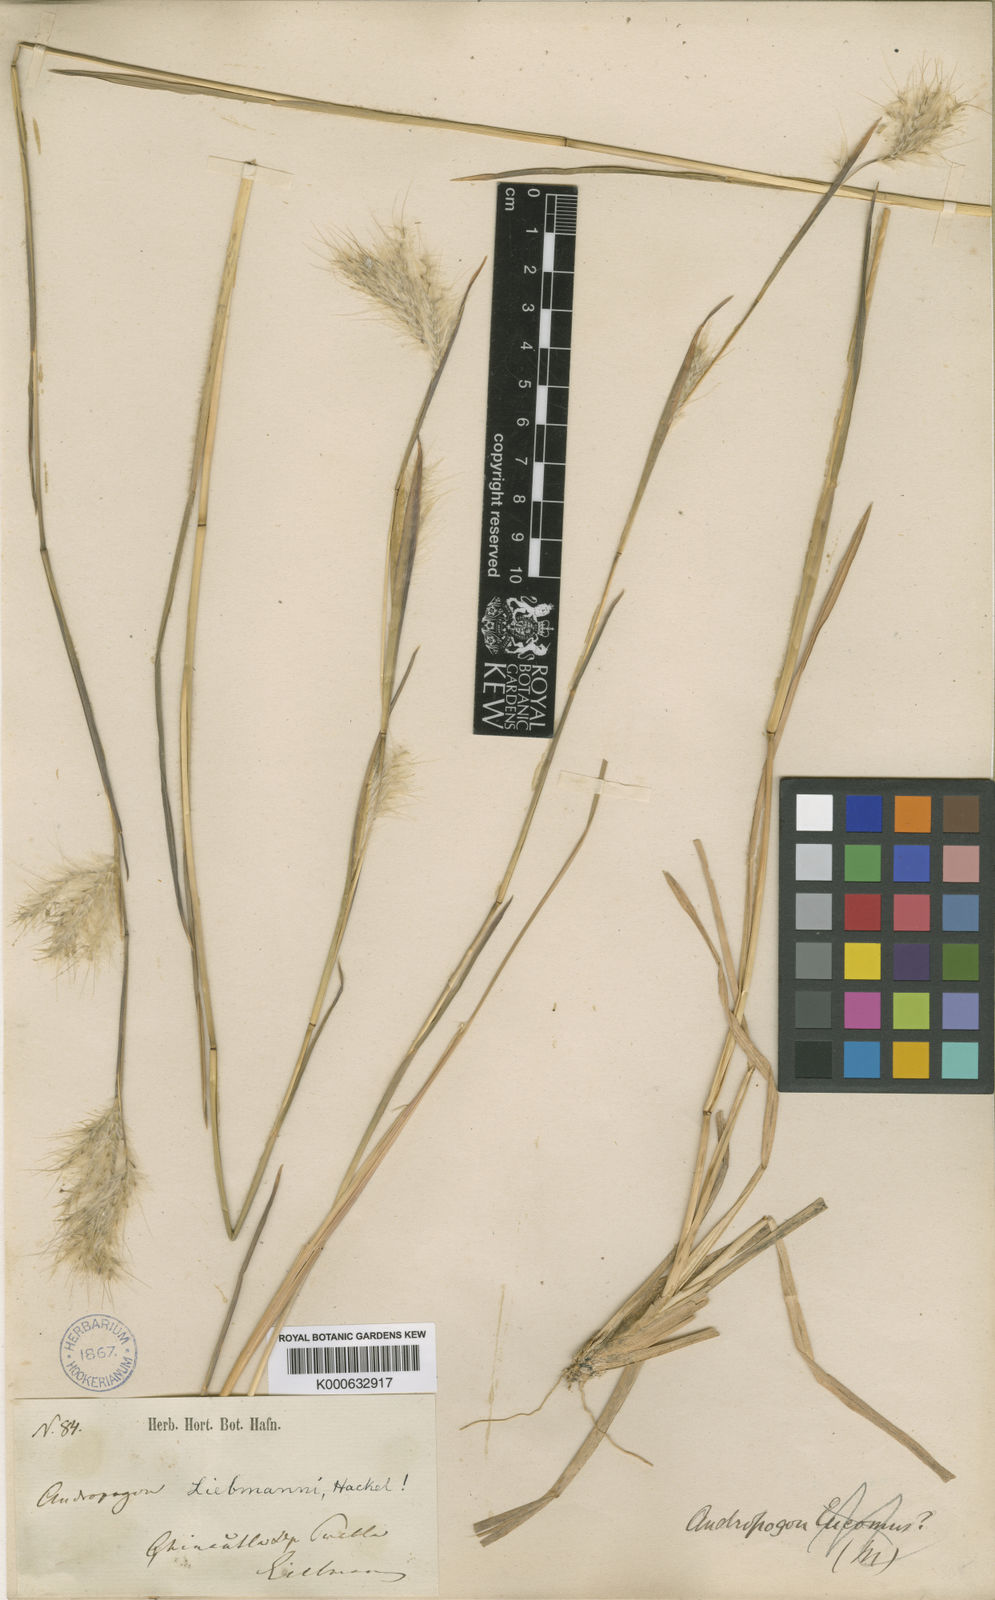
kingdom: Plantae
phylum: Tracheophyta
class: Liliopsida
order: Poales
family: Poaceae
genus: Andropogon
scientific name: Andropogon liebmannii
